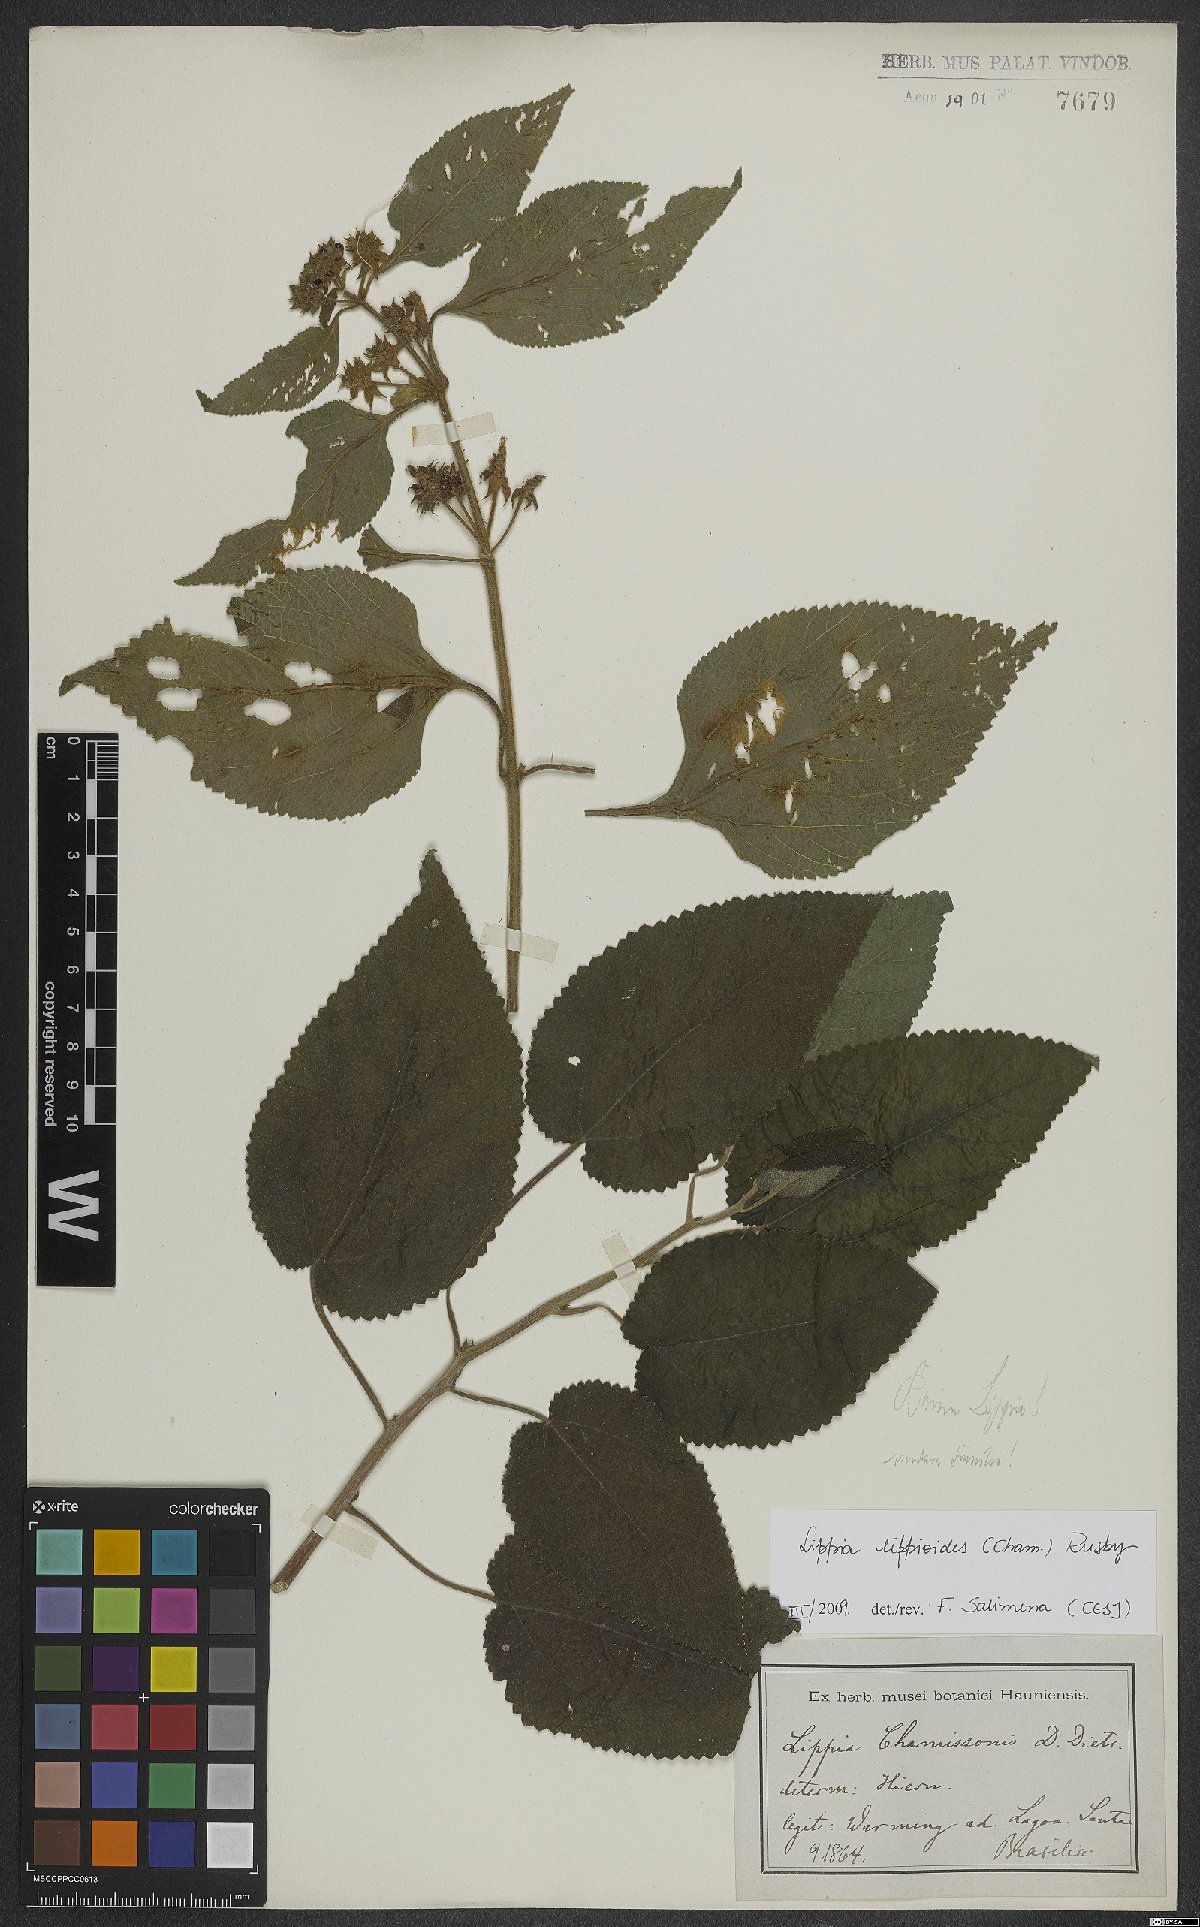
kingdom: Plantae
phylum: Tracheophyta
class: Magnoliopsida
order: Lamiales
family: Verbenaceae
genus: Lippia
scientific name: Lippia lippioides
